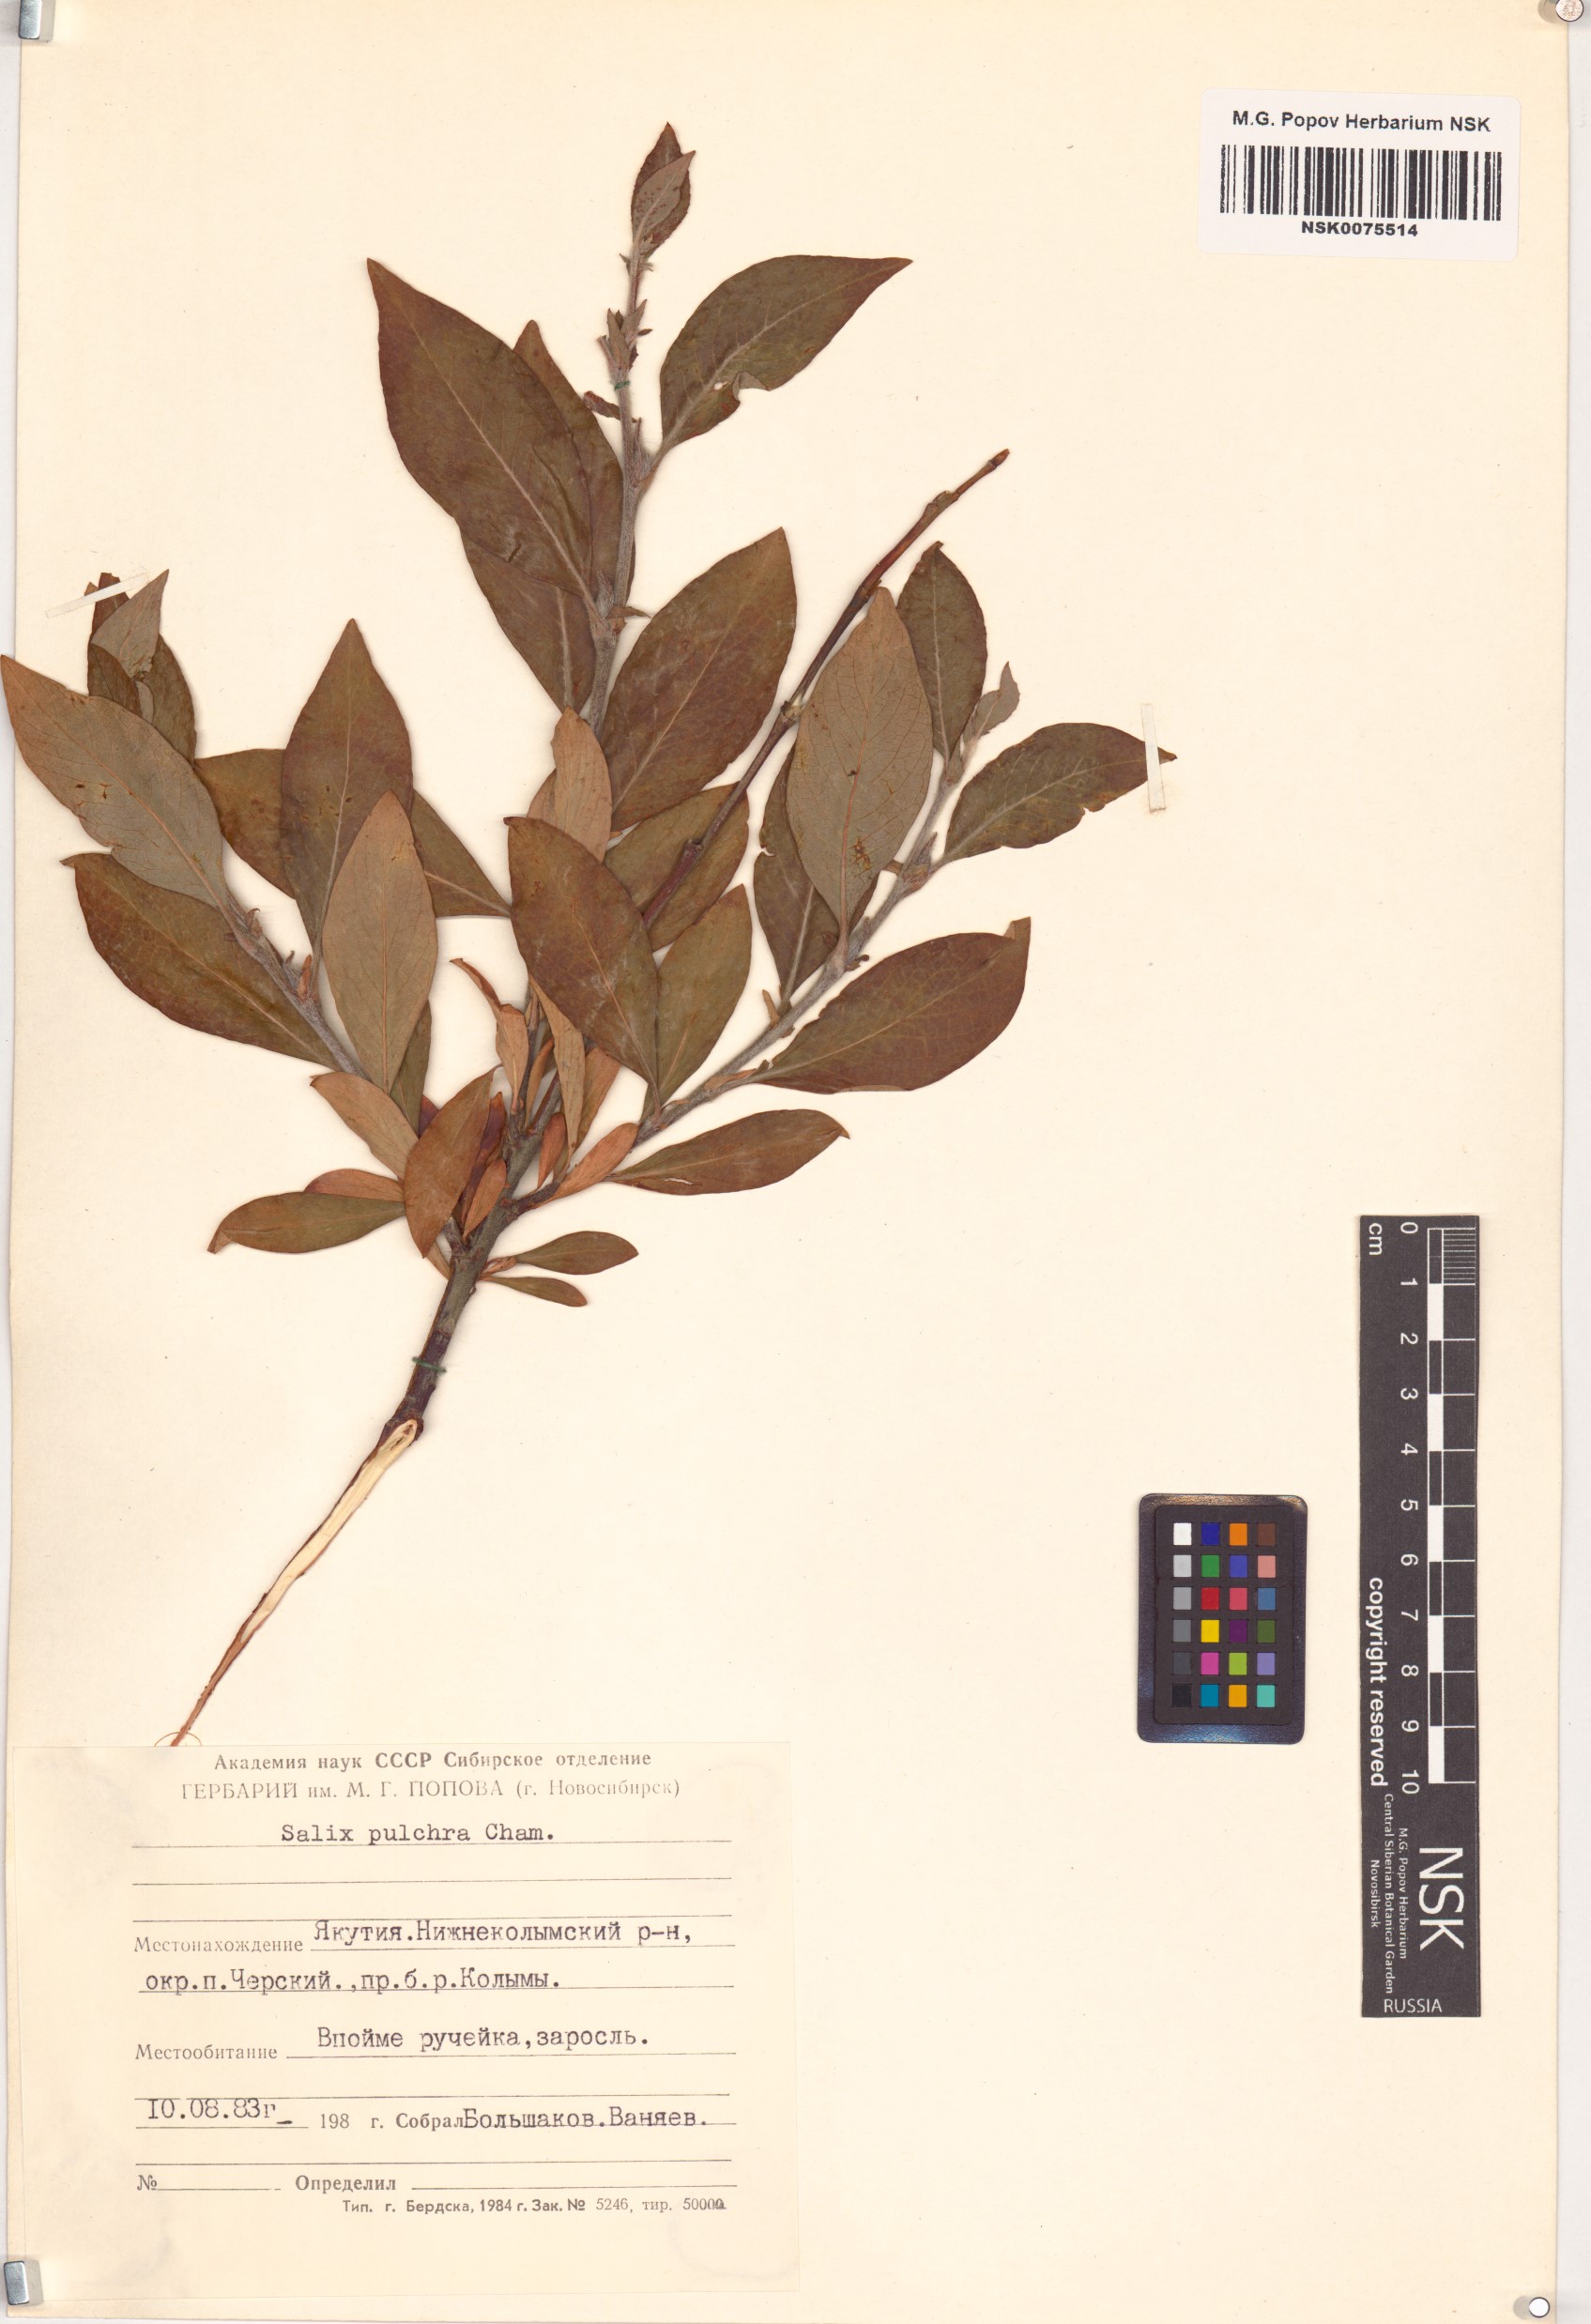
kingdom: Plantae
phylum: Tracheophyta
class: Magnoliopsida
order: Malpighiales
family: Salicaceae
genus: Salix
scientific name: Salix pulchra
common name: Diamond-leaved willow
